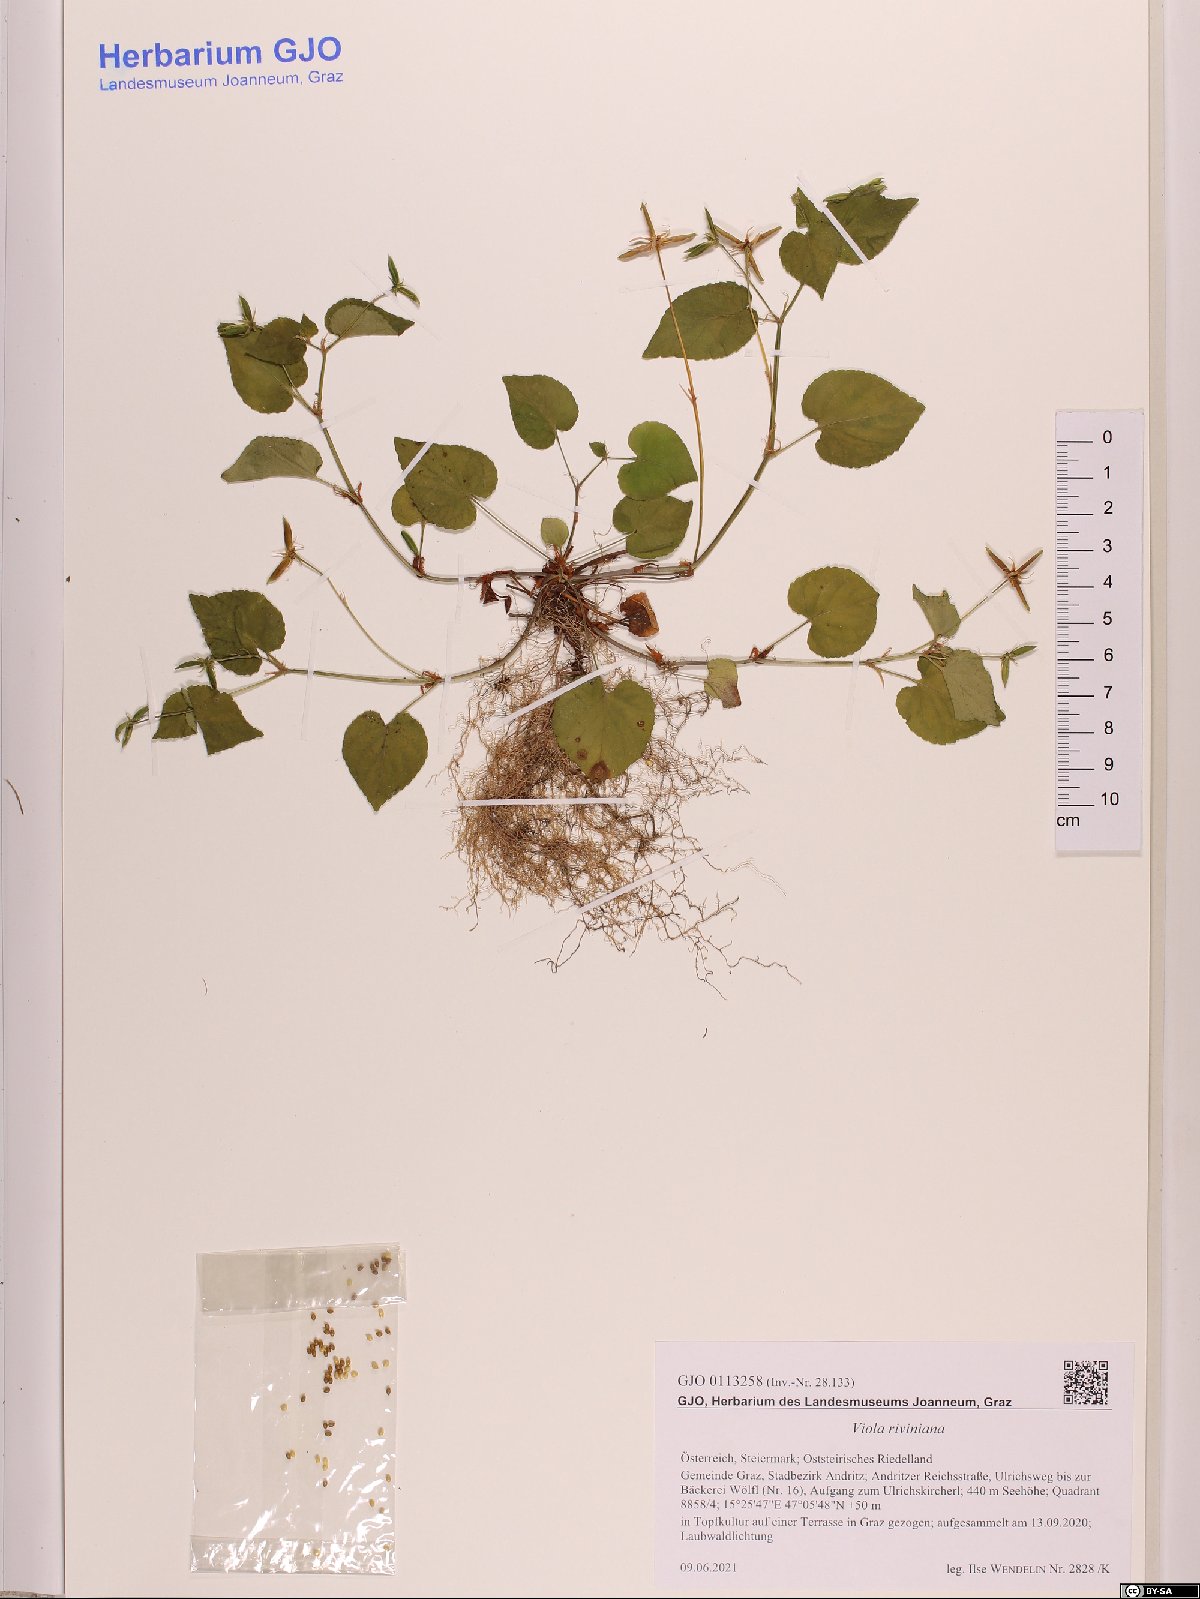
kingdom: Plantae
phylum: Tracheophyta
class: Magnoliopsida
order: Malpighiales
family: Violaceae
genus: Viola
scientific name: Viola riviniana
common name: Common dog-violet
